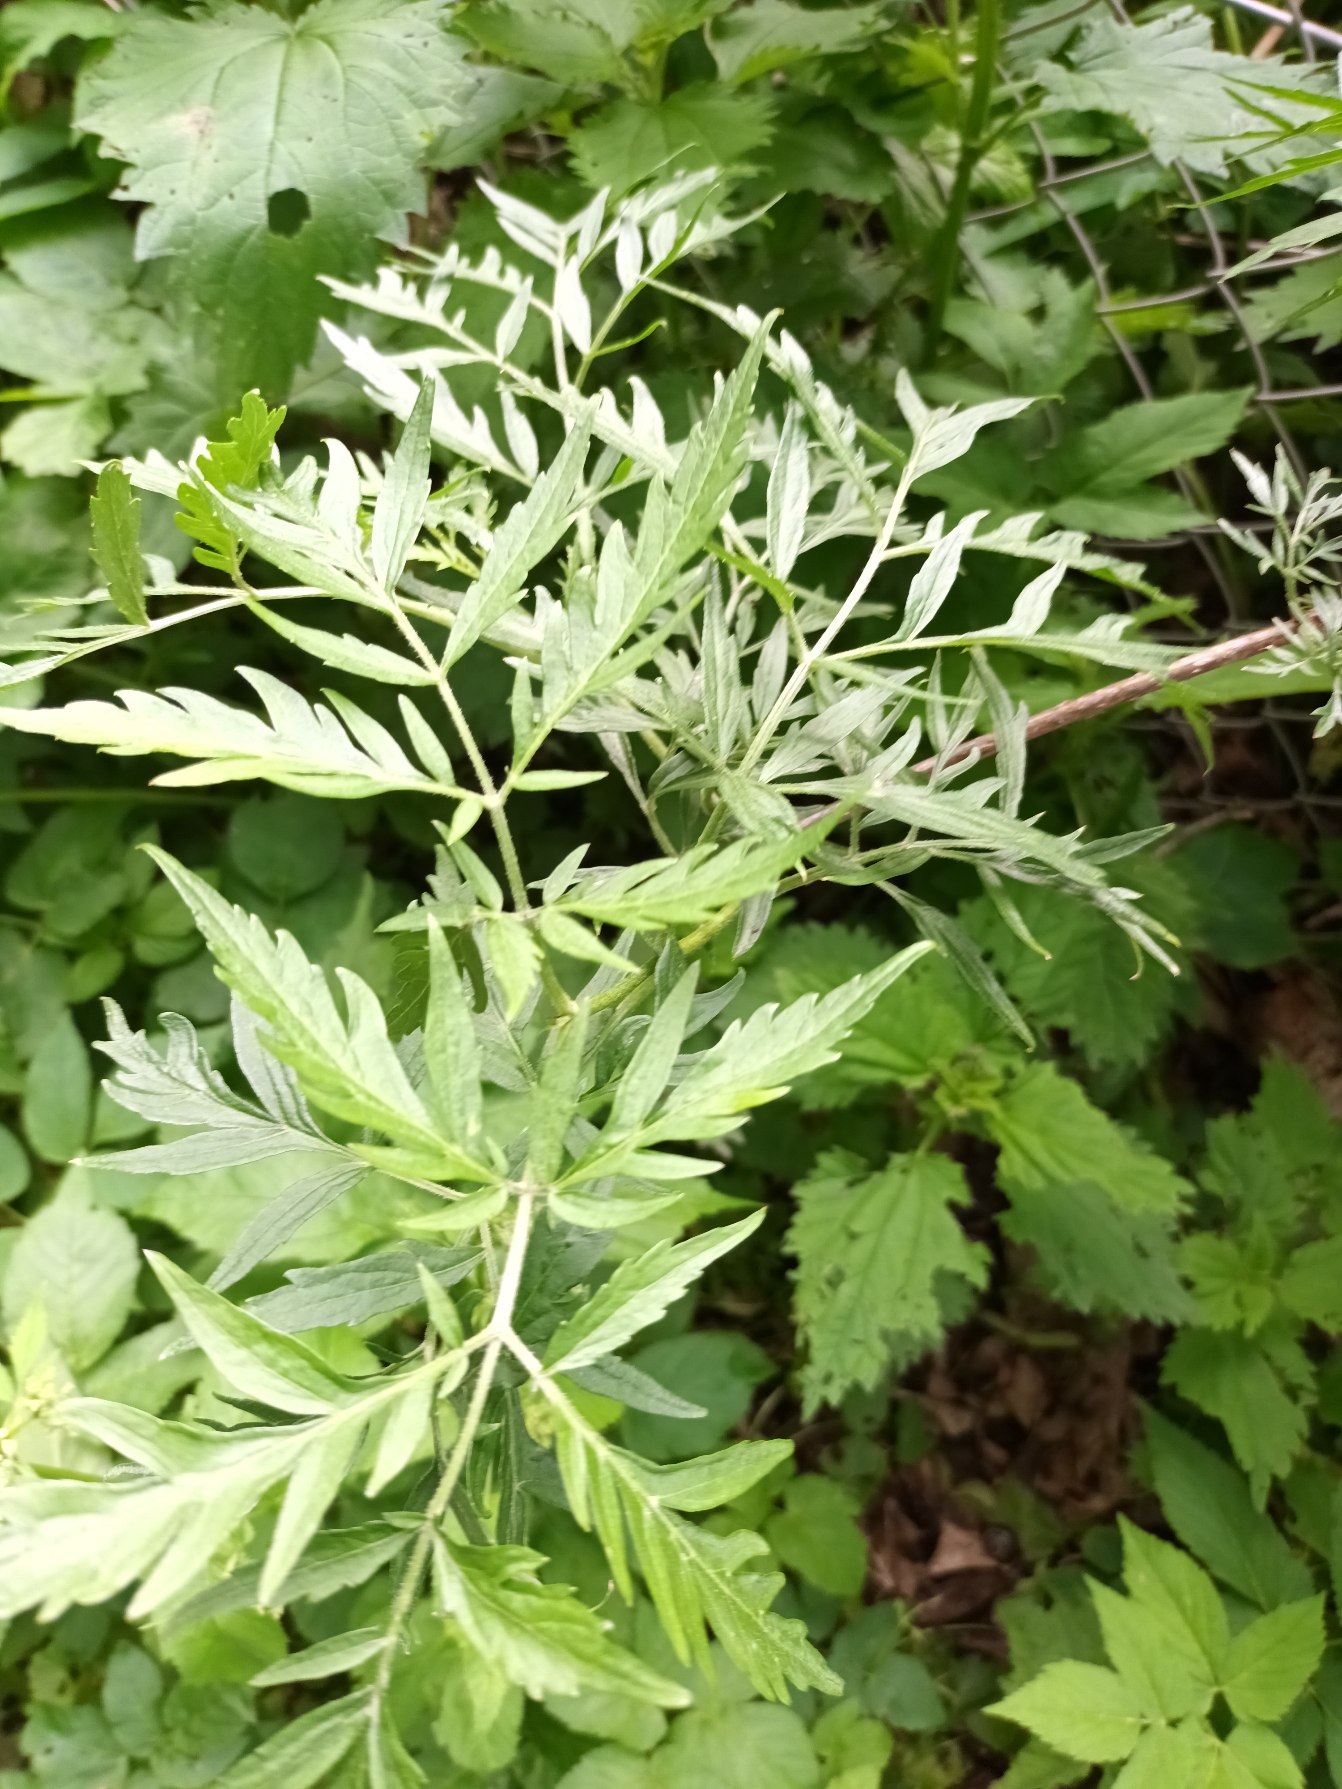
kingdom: Plantae
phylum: Tracheophyta
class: Magnoliopsida
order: Dipsacales
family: Viburnaceae
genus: Sambucus
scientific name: Sambucus nigra
